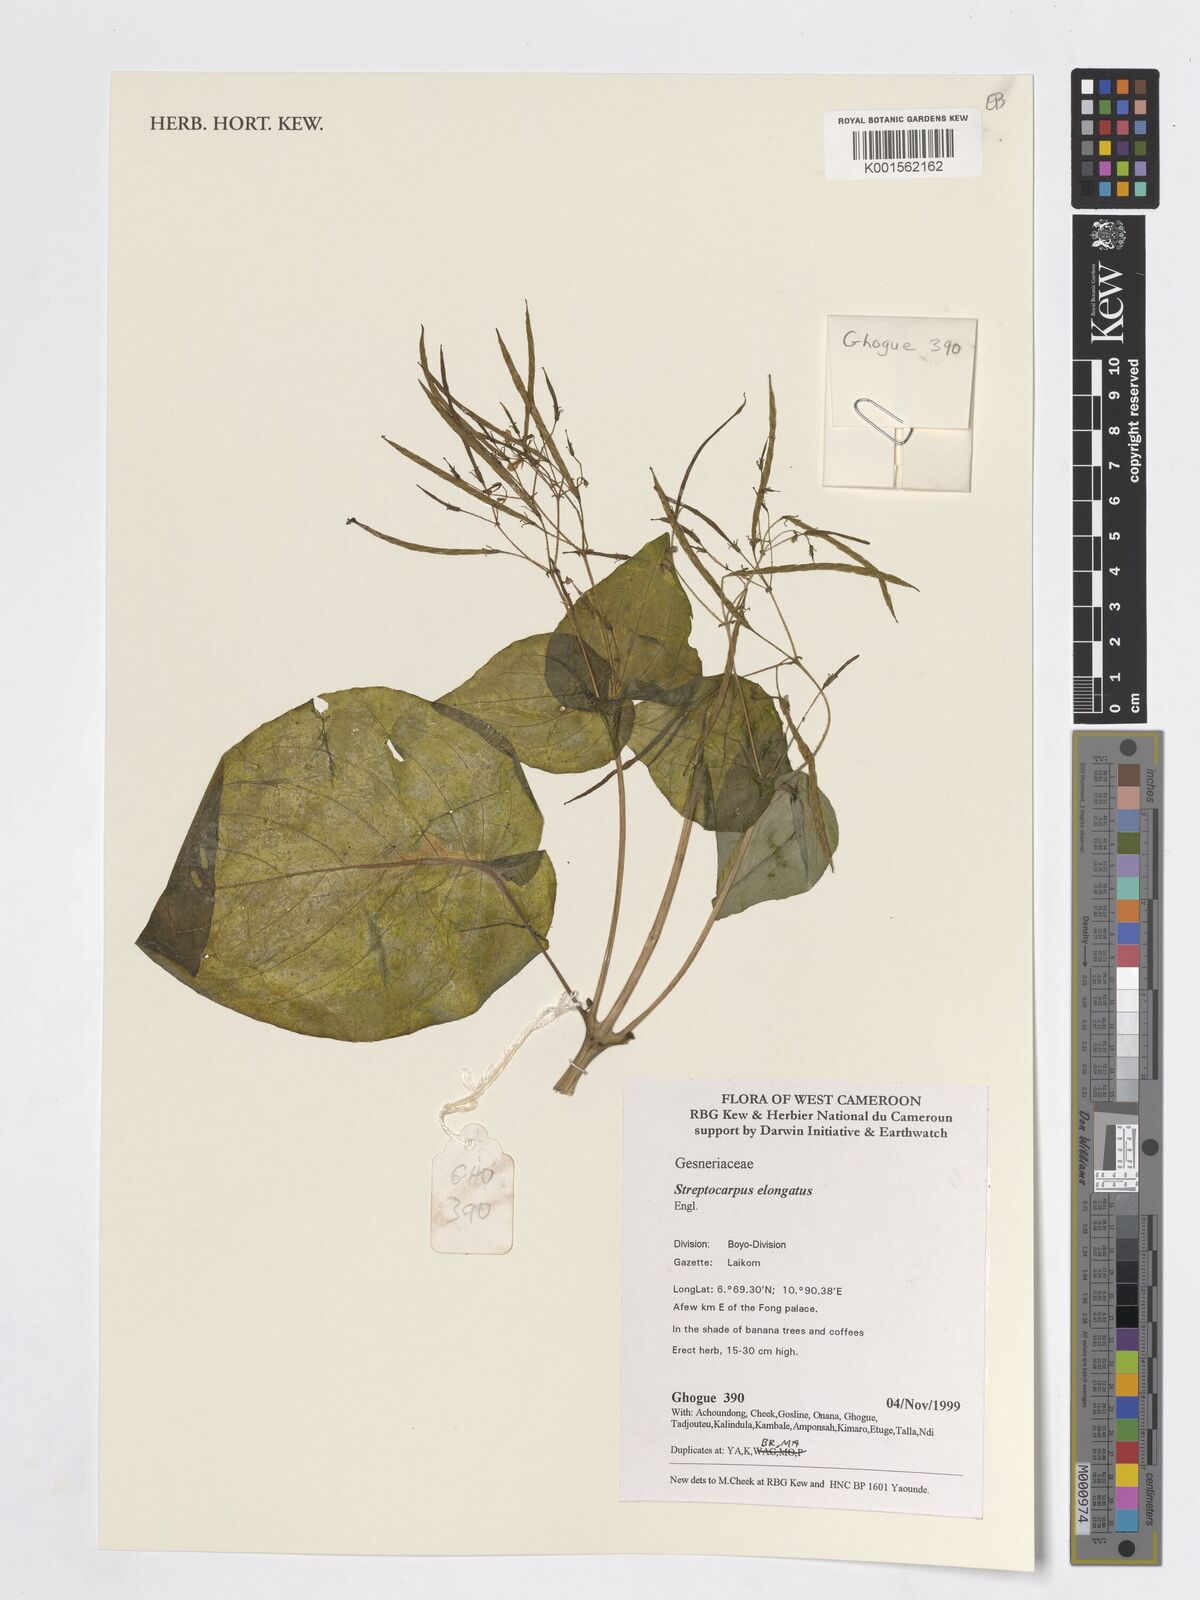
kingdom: Plantae
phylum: Tracheophyta
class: Magnoliopsida
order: Lamiales
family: Gesneriaceae
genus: Streptocarpus
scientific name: Streptocarpus elongatus
